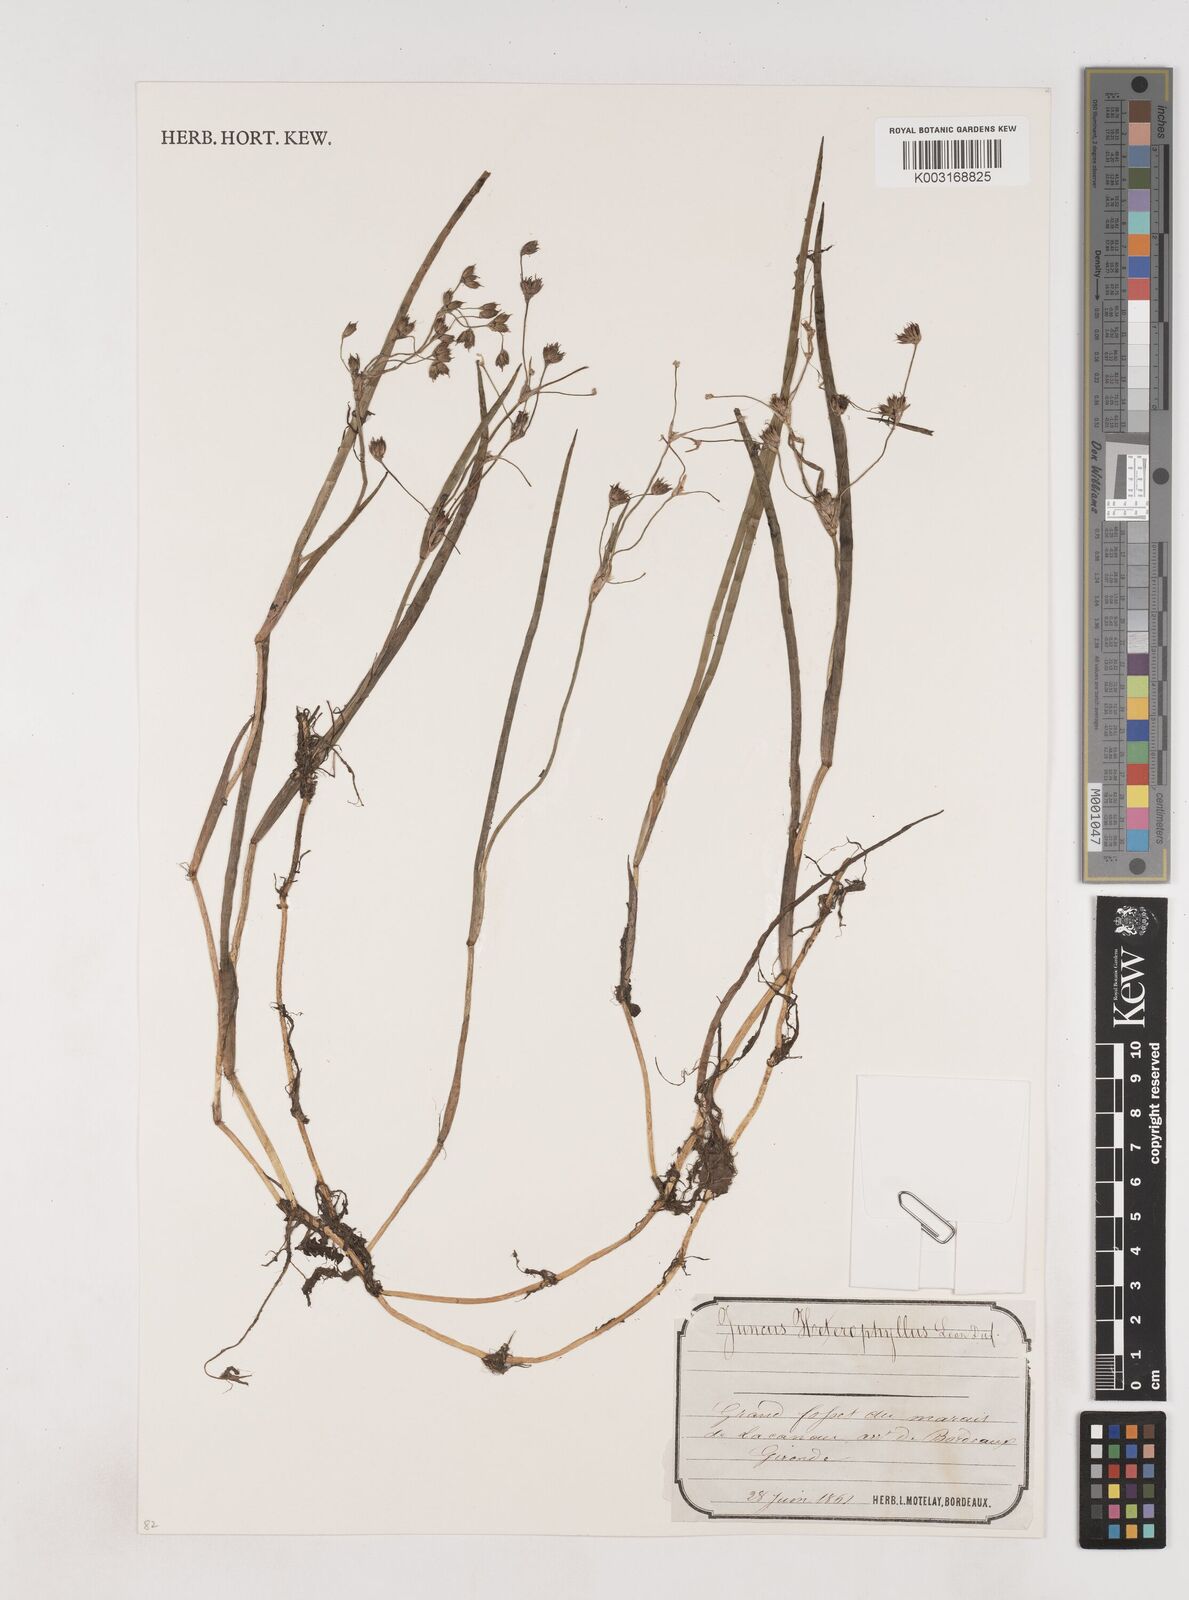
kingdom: Plantae
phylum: Tracheophyta
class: Liliopsida
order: Poales
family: Juncaceae
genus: Juncus
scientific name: Juncus heterophyllus
